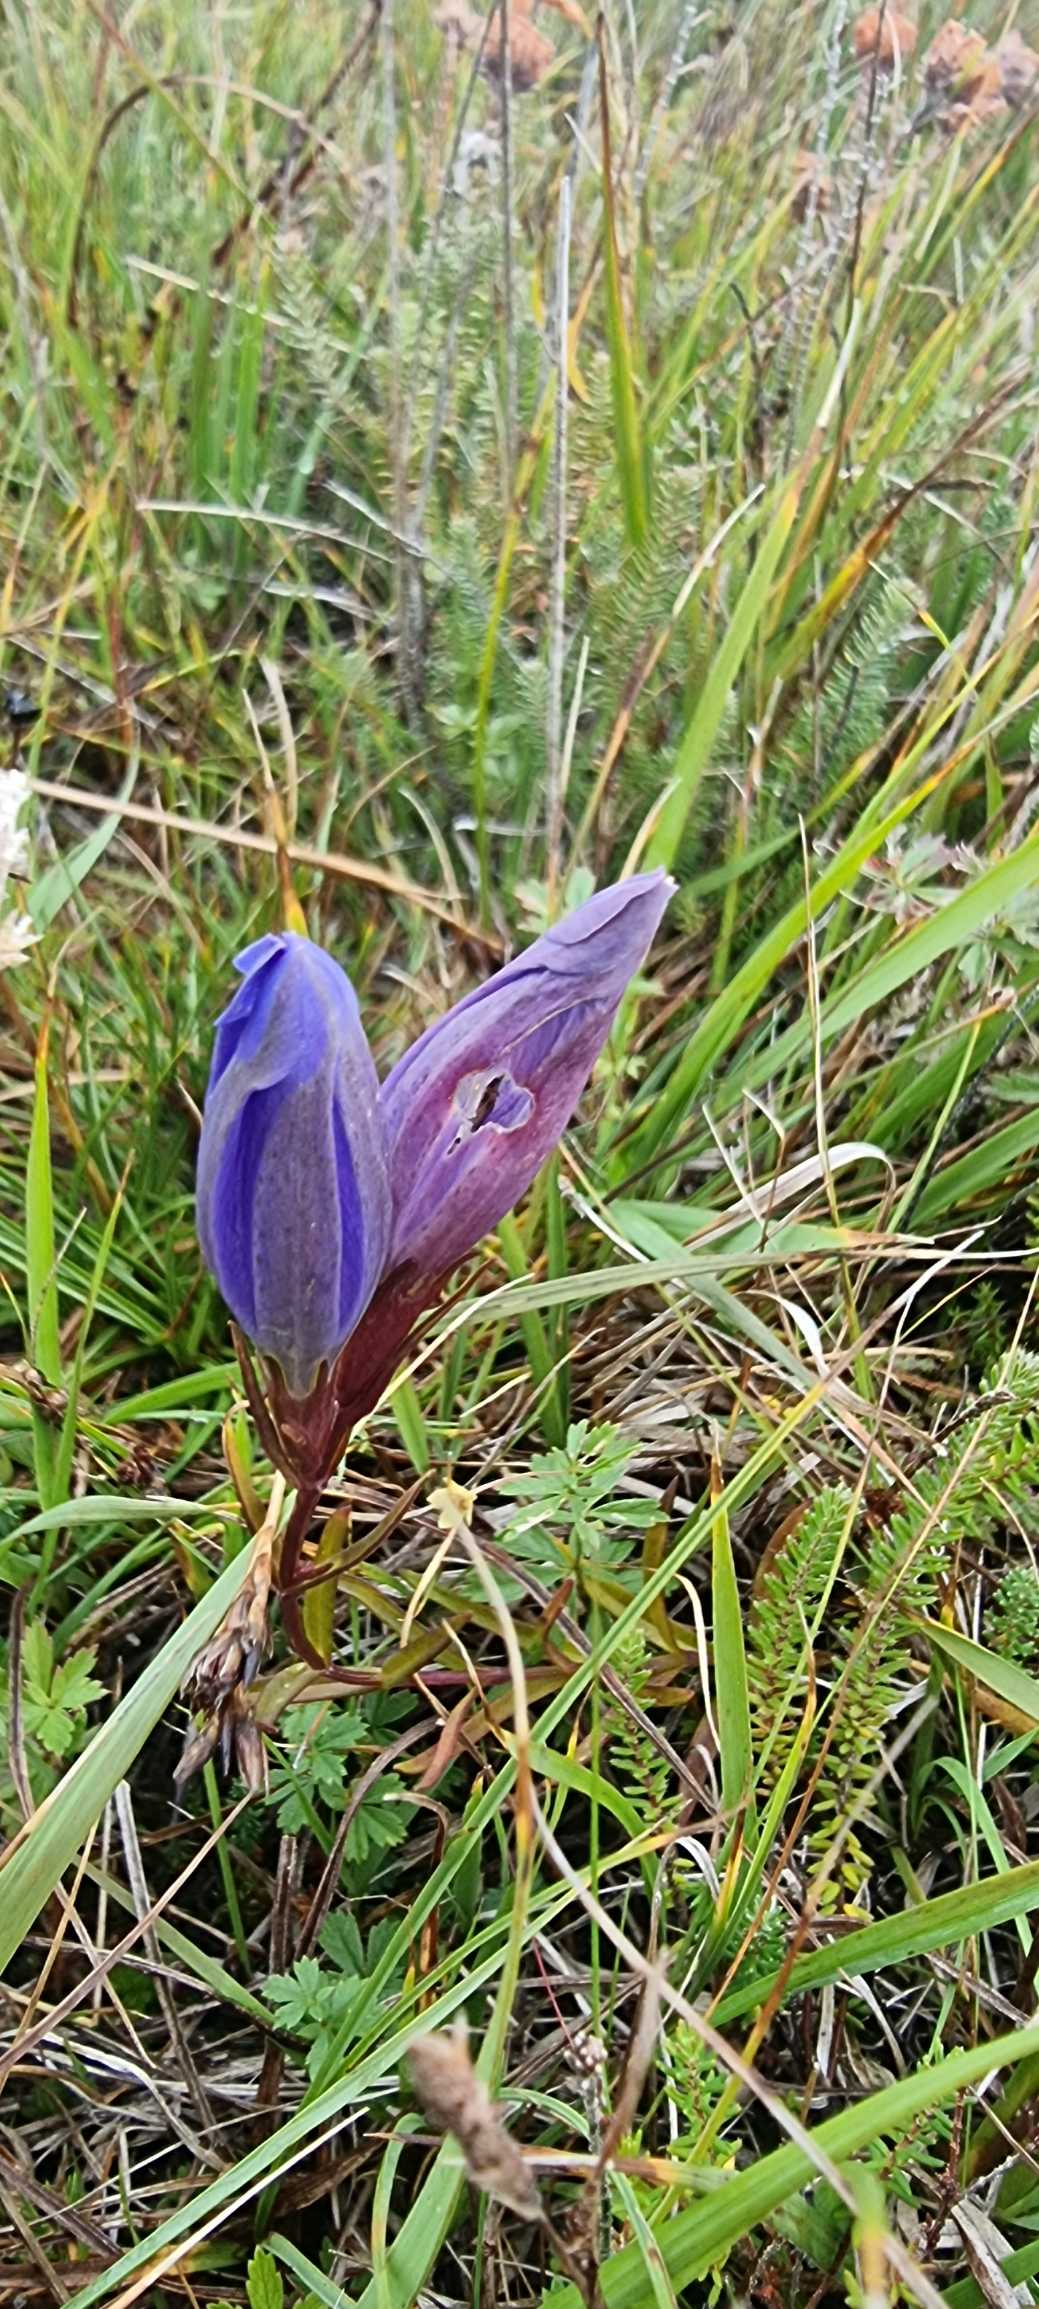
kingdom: Plantae
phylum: Tracheophyta
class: Magnoliopsida
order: Gentianales
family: Gentianaceae
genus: Gentiana
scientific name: Gentiana pneumonanthe
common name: Klokke-ensian
